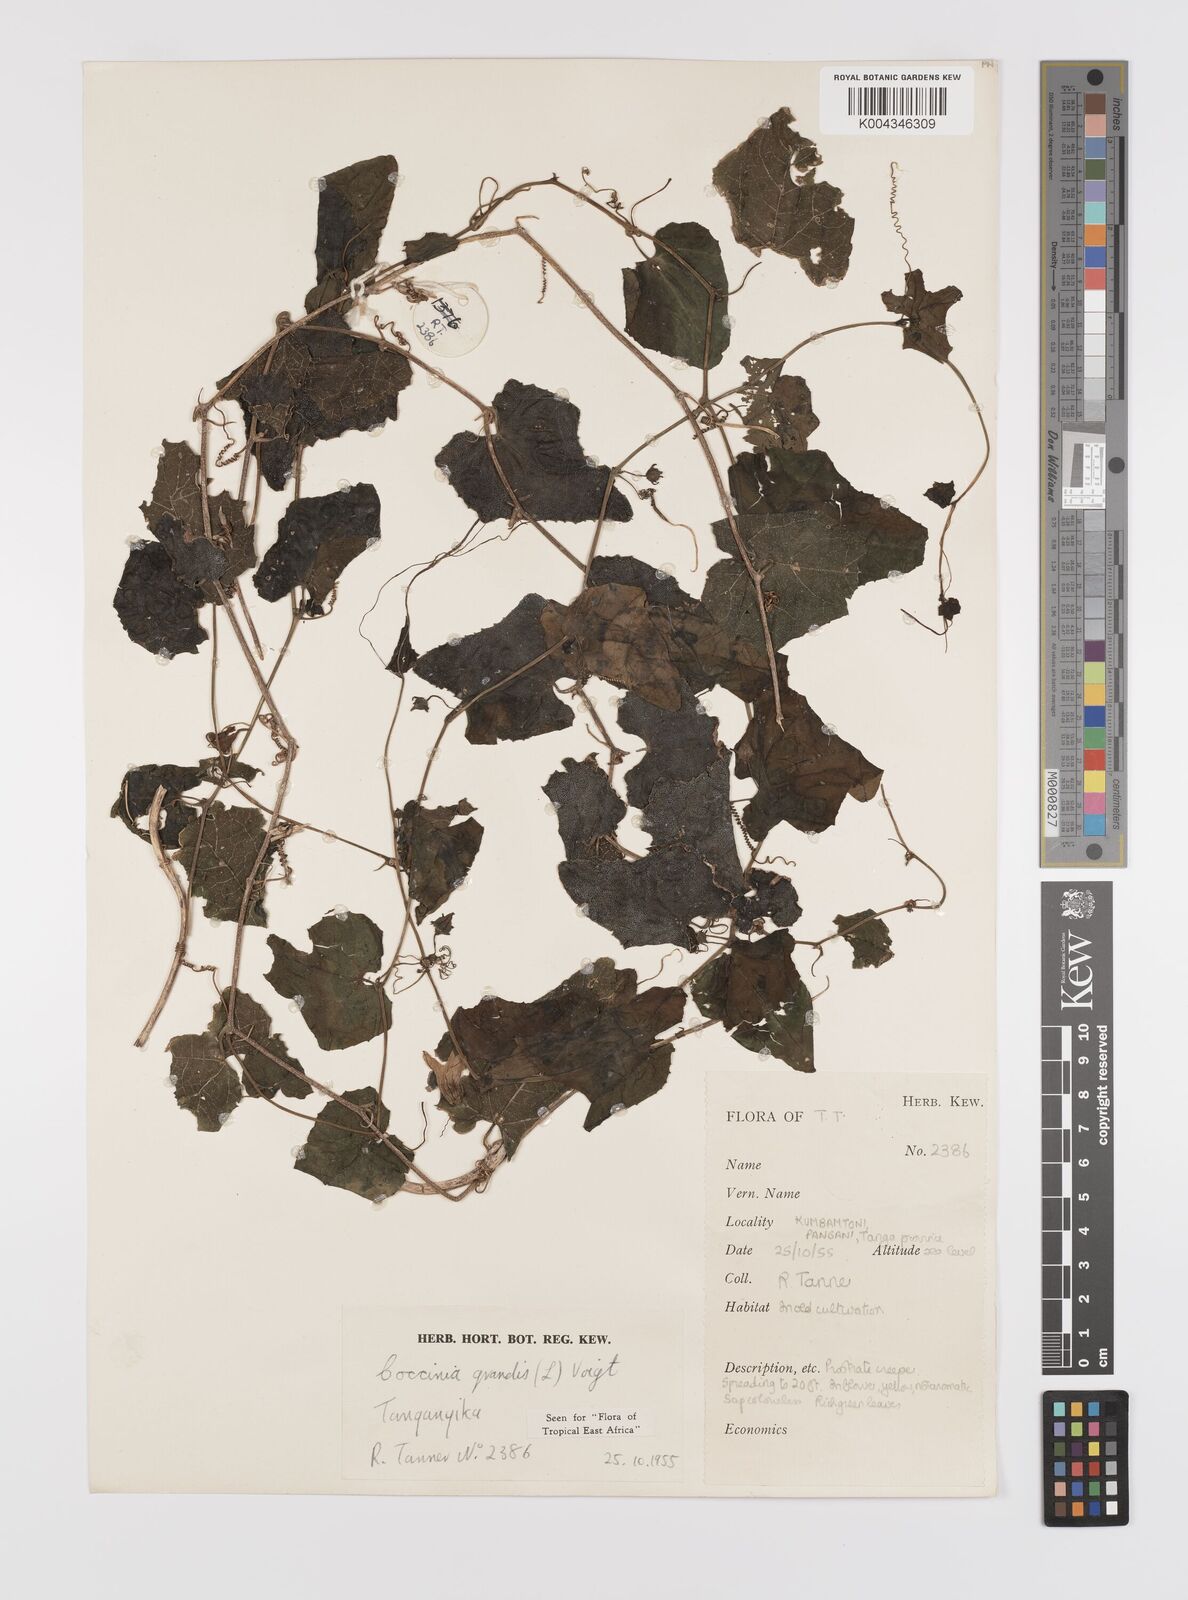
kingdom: Plantae
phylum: Tracheophyta
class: Magnoliopsida
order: Cucurbitales
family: Cucurbitaceae
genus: Coccinia
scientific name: Coccinia grandis
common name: Ivy gourd
